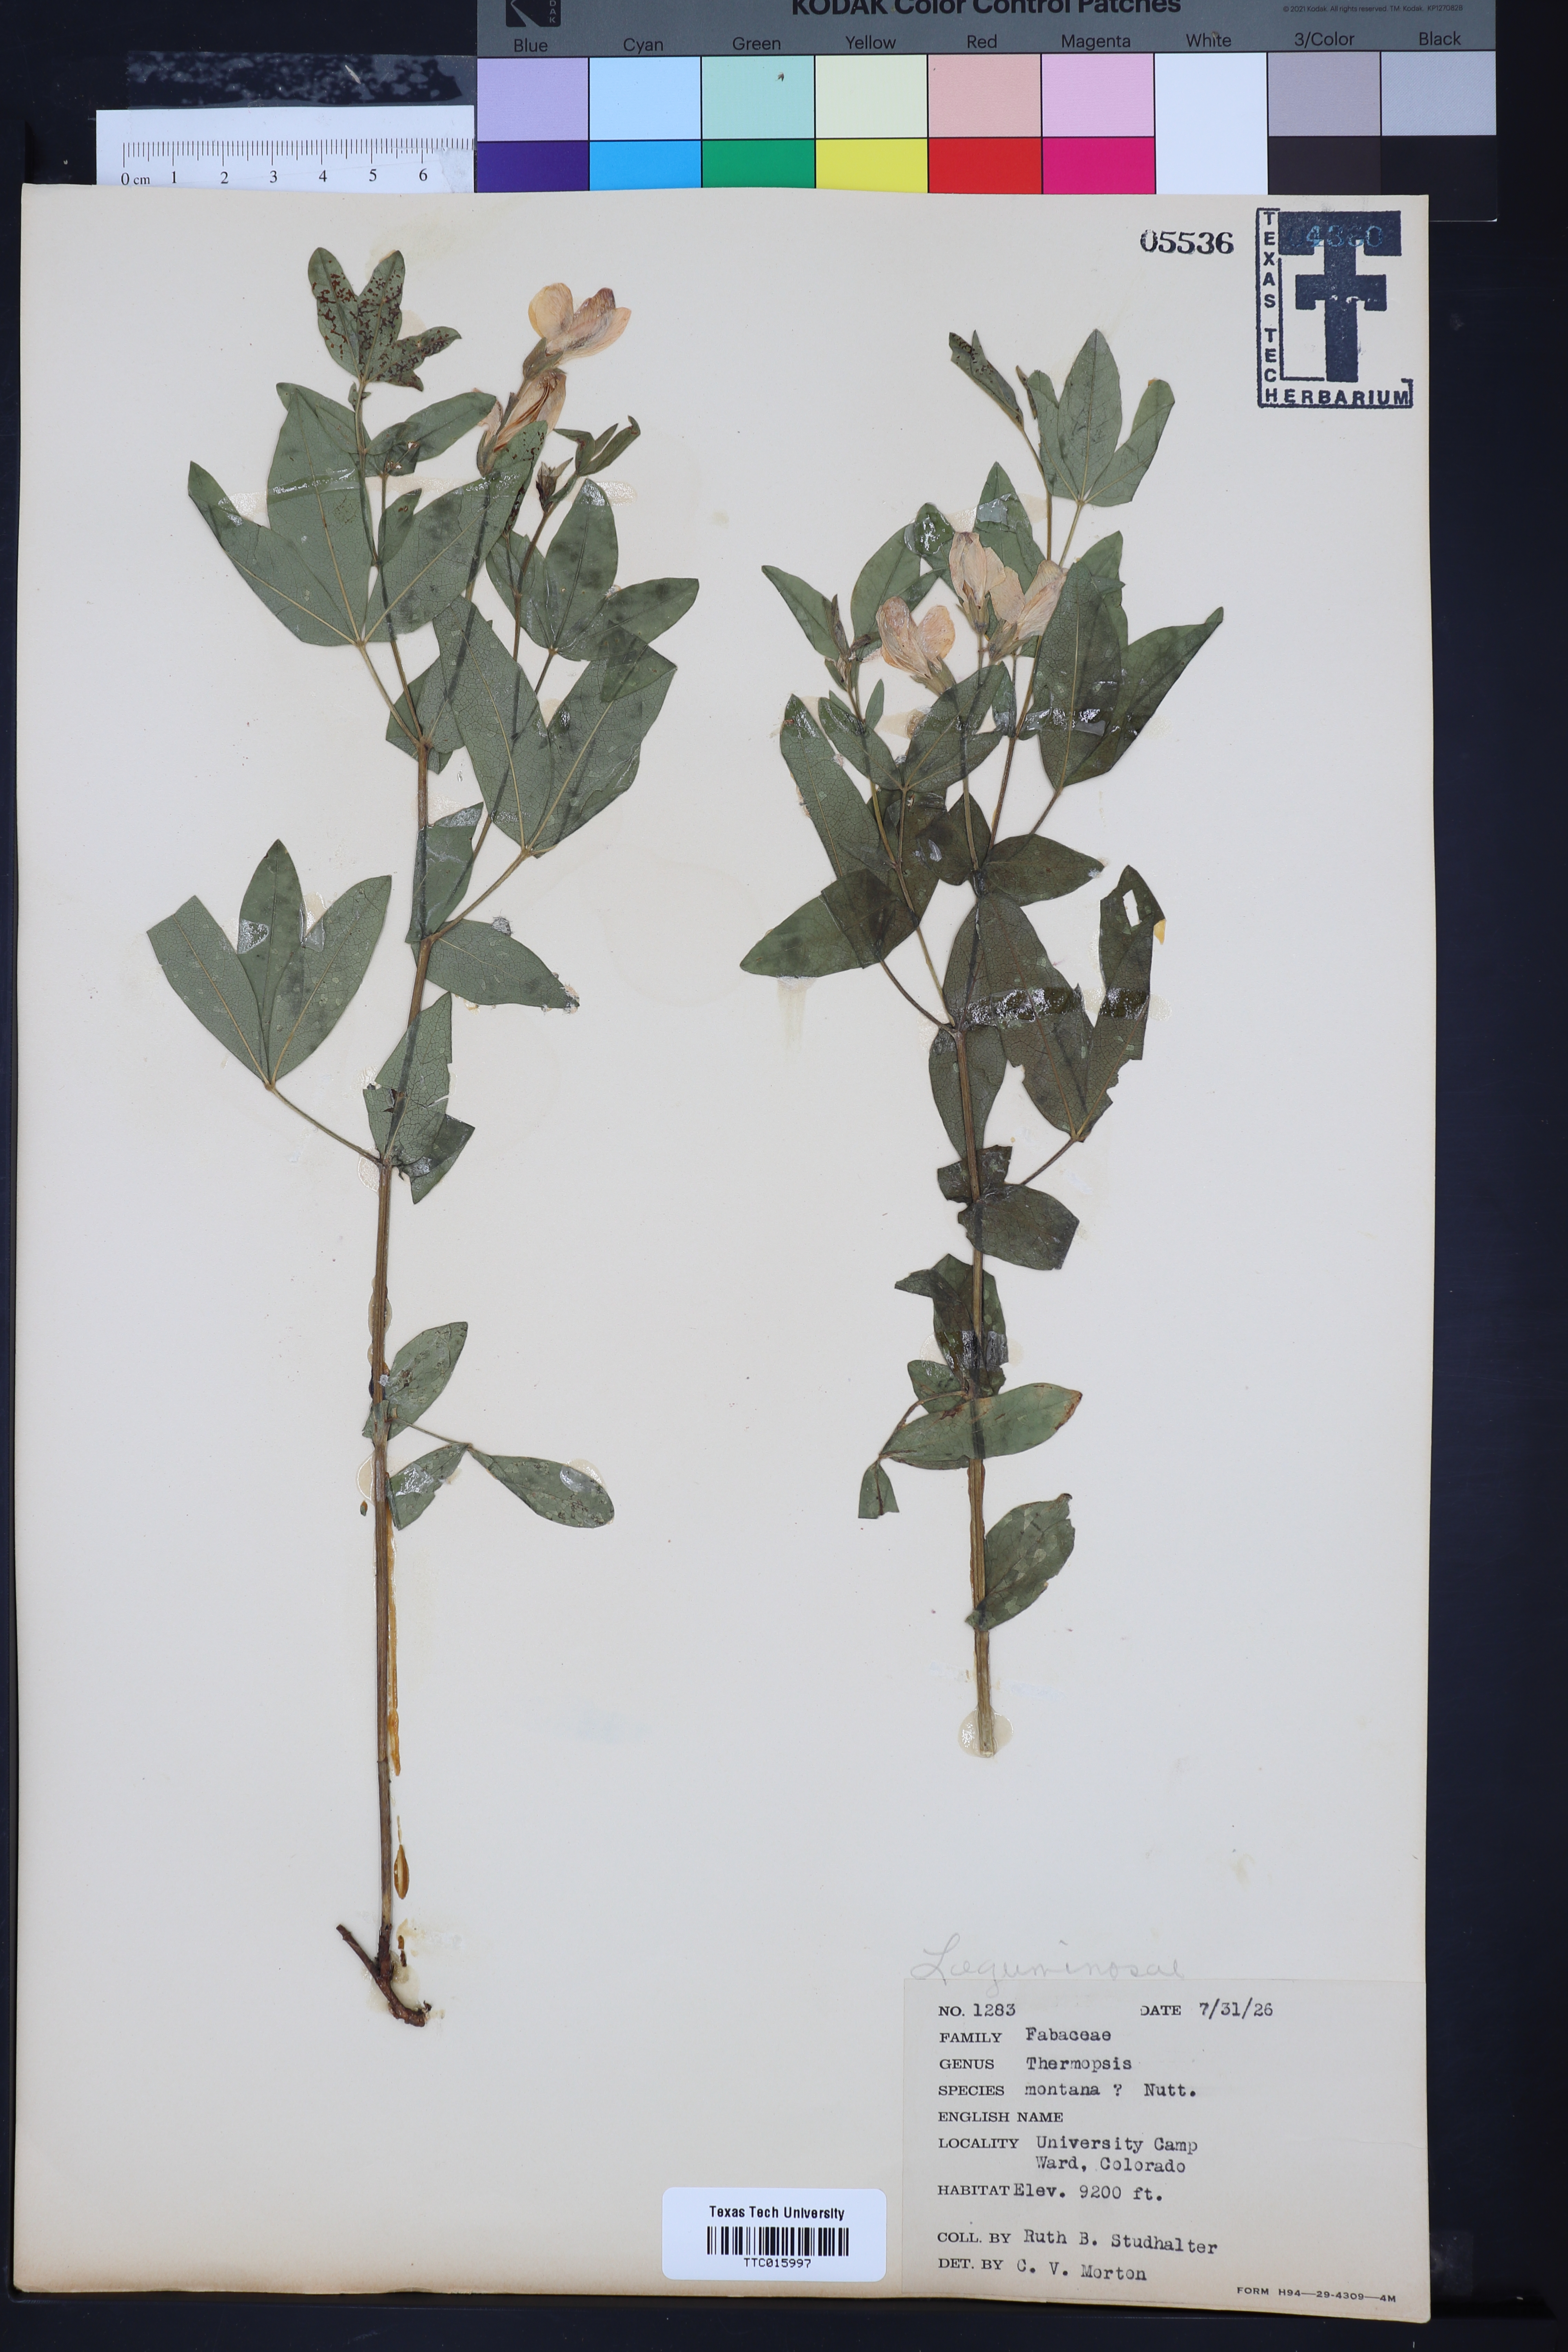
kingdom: Plantae
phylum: Tracheophyta
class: Magnoliopsida
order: Fabales
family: Fabaceae
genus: Thermopsis
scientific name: Thermopsis montana
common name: False lupin
